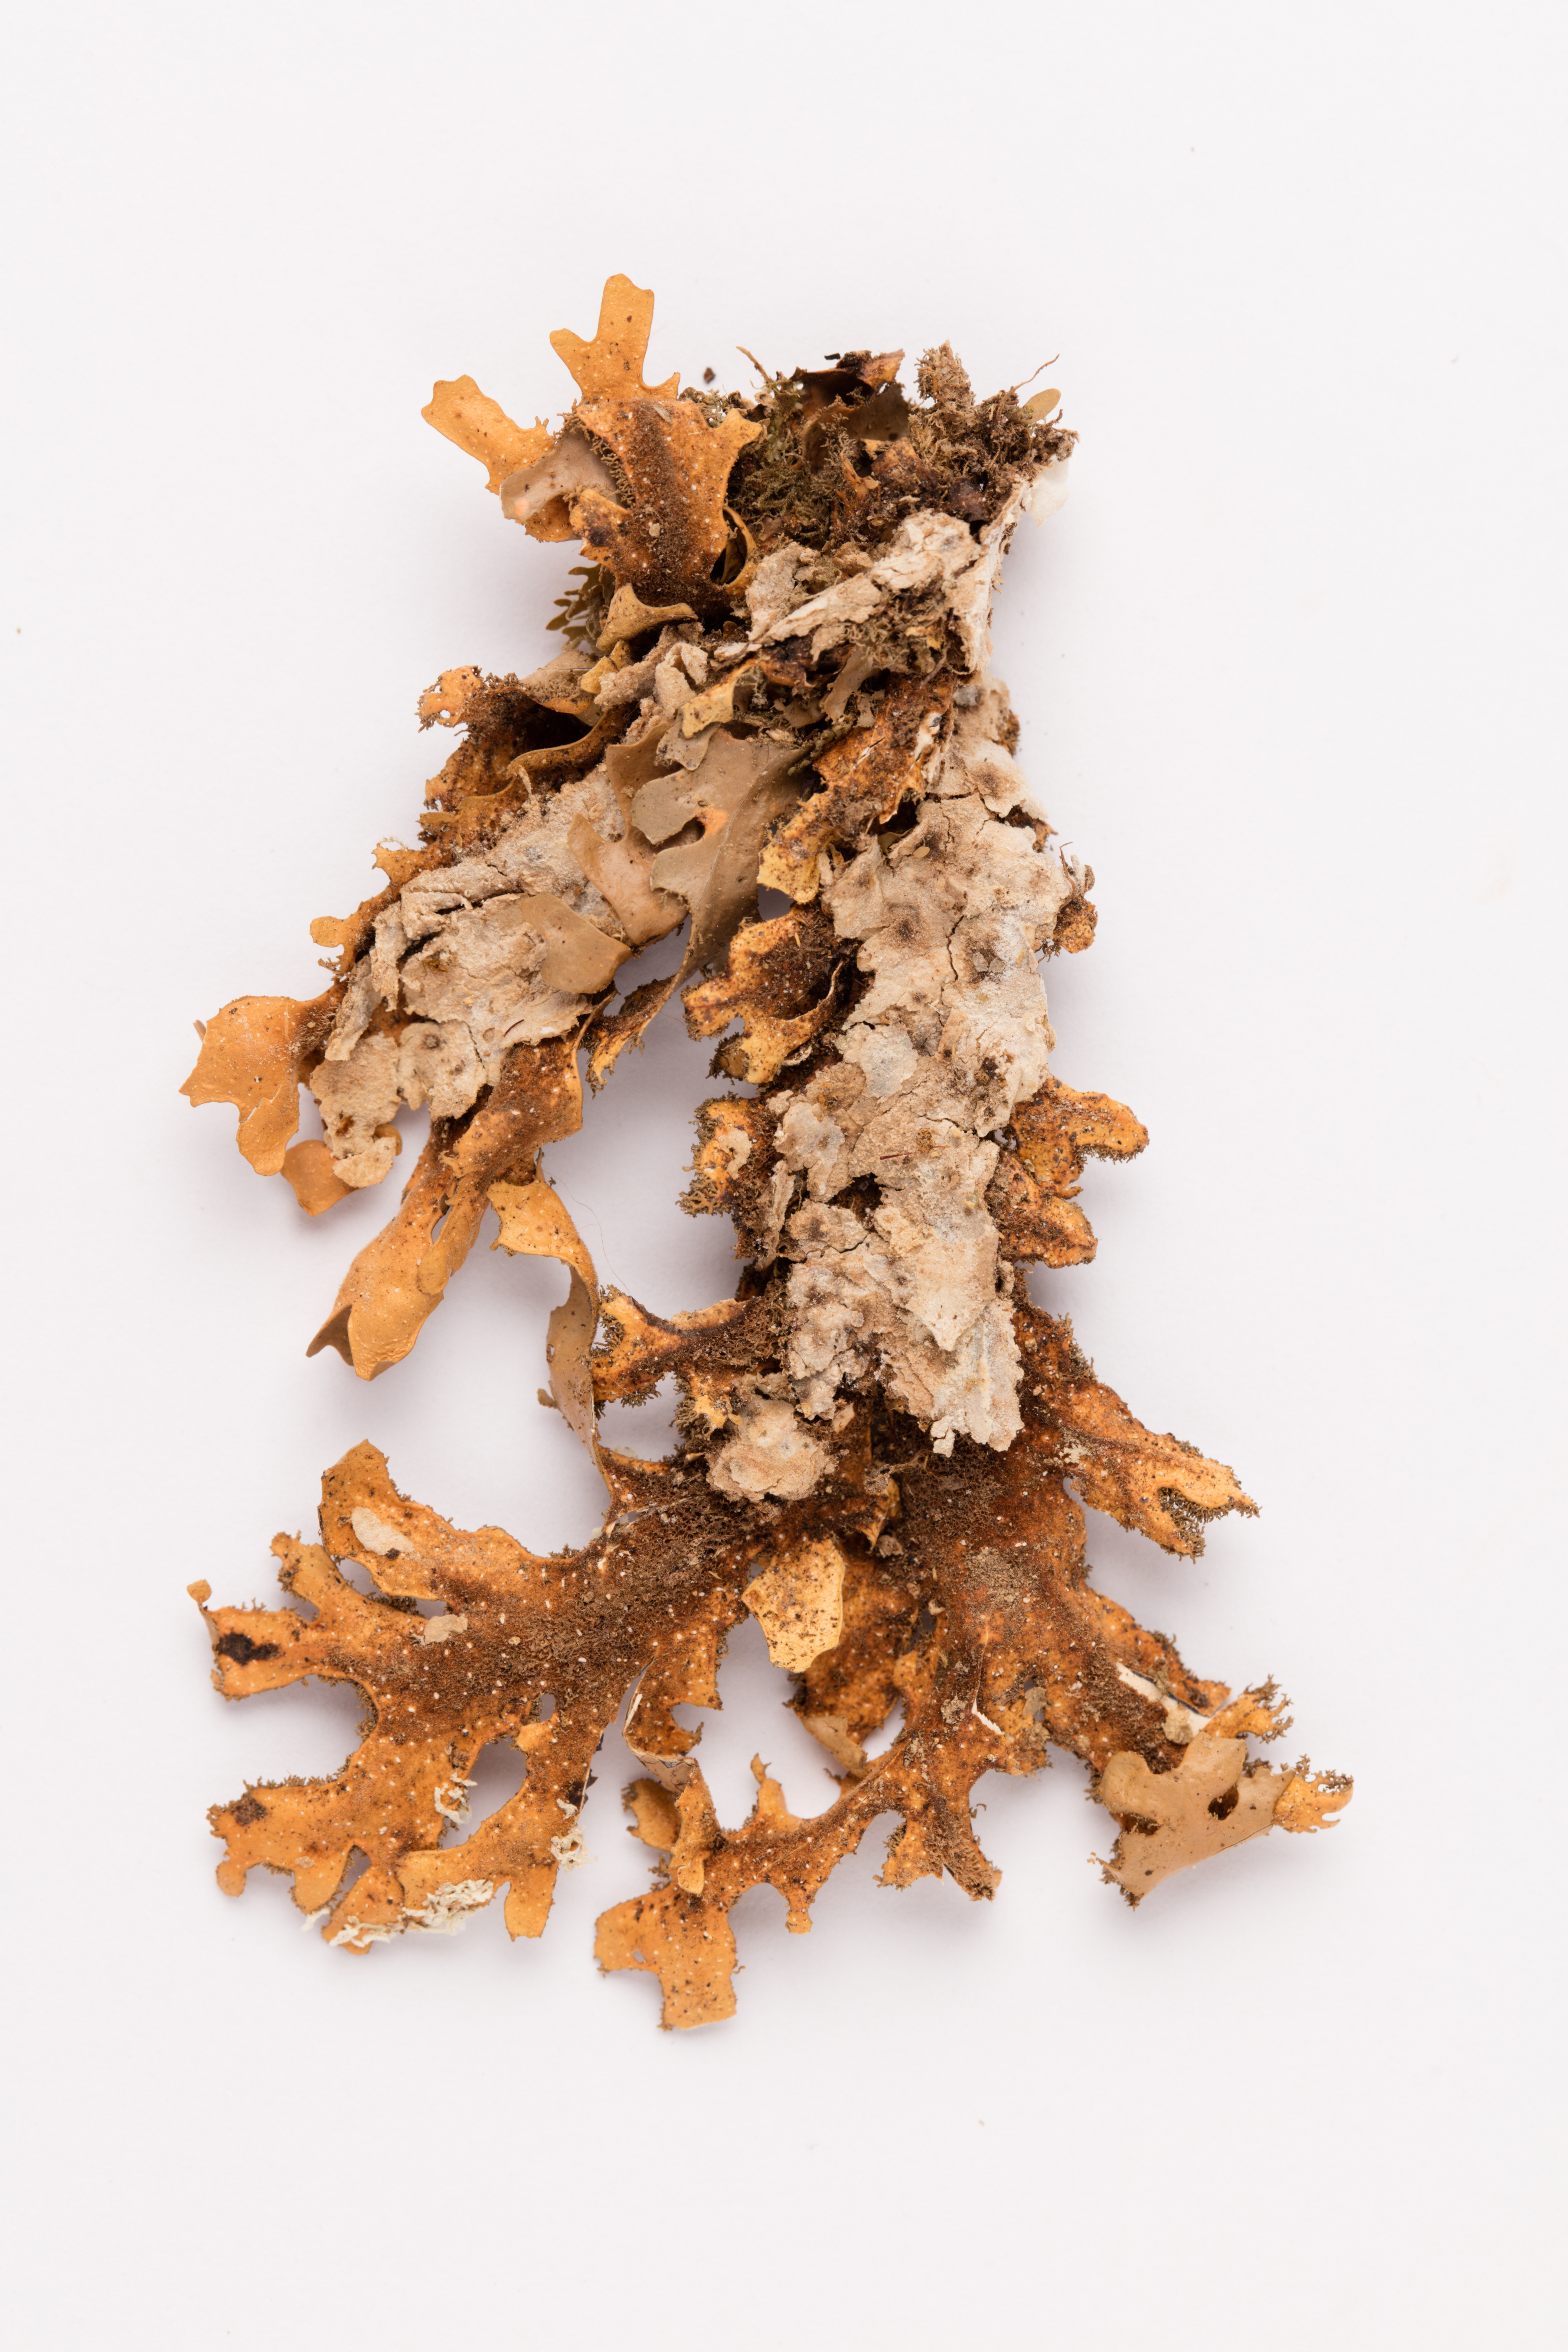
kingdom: Fungi
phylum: Ascomycota
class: Lecanoromycetes
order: Peltigerales
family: Lobariaceae
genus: Pseudocyphellaria
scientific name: Pseudocyphellaria dissimilis
